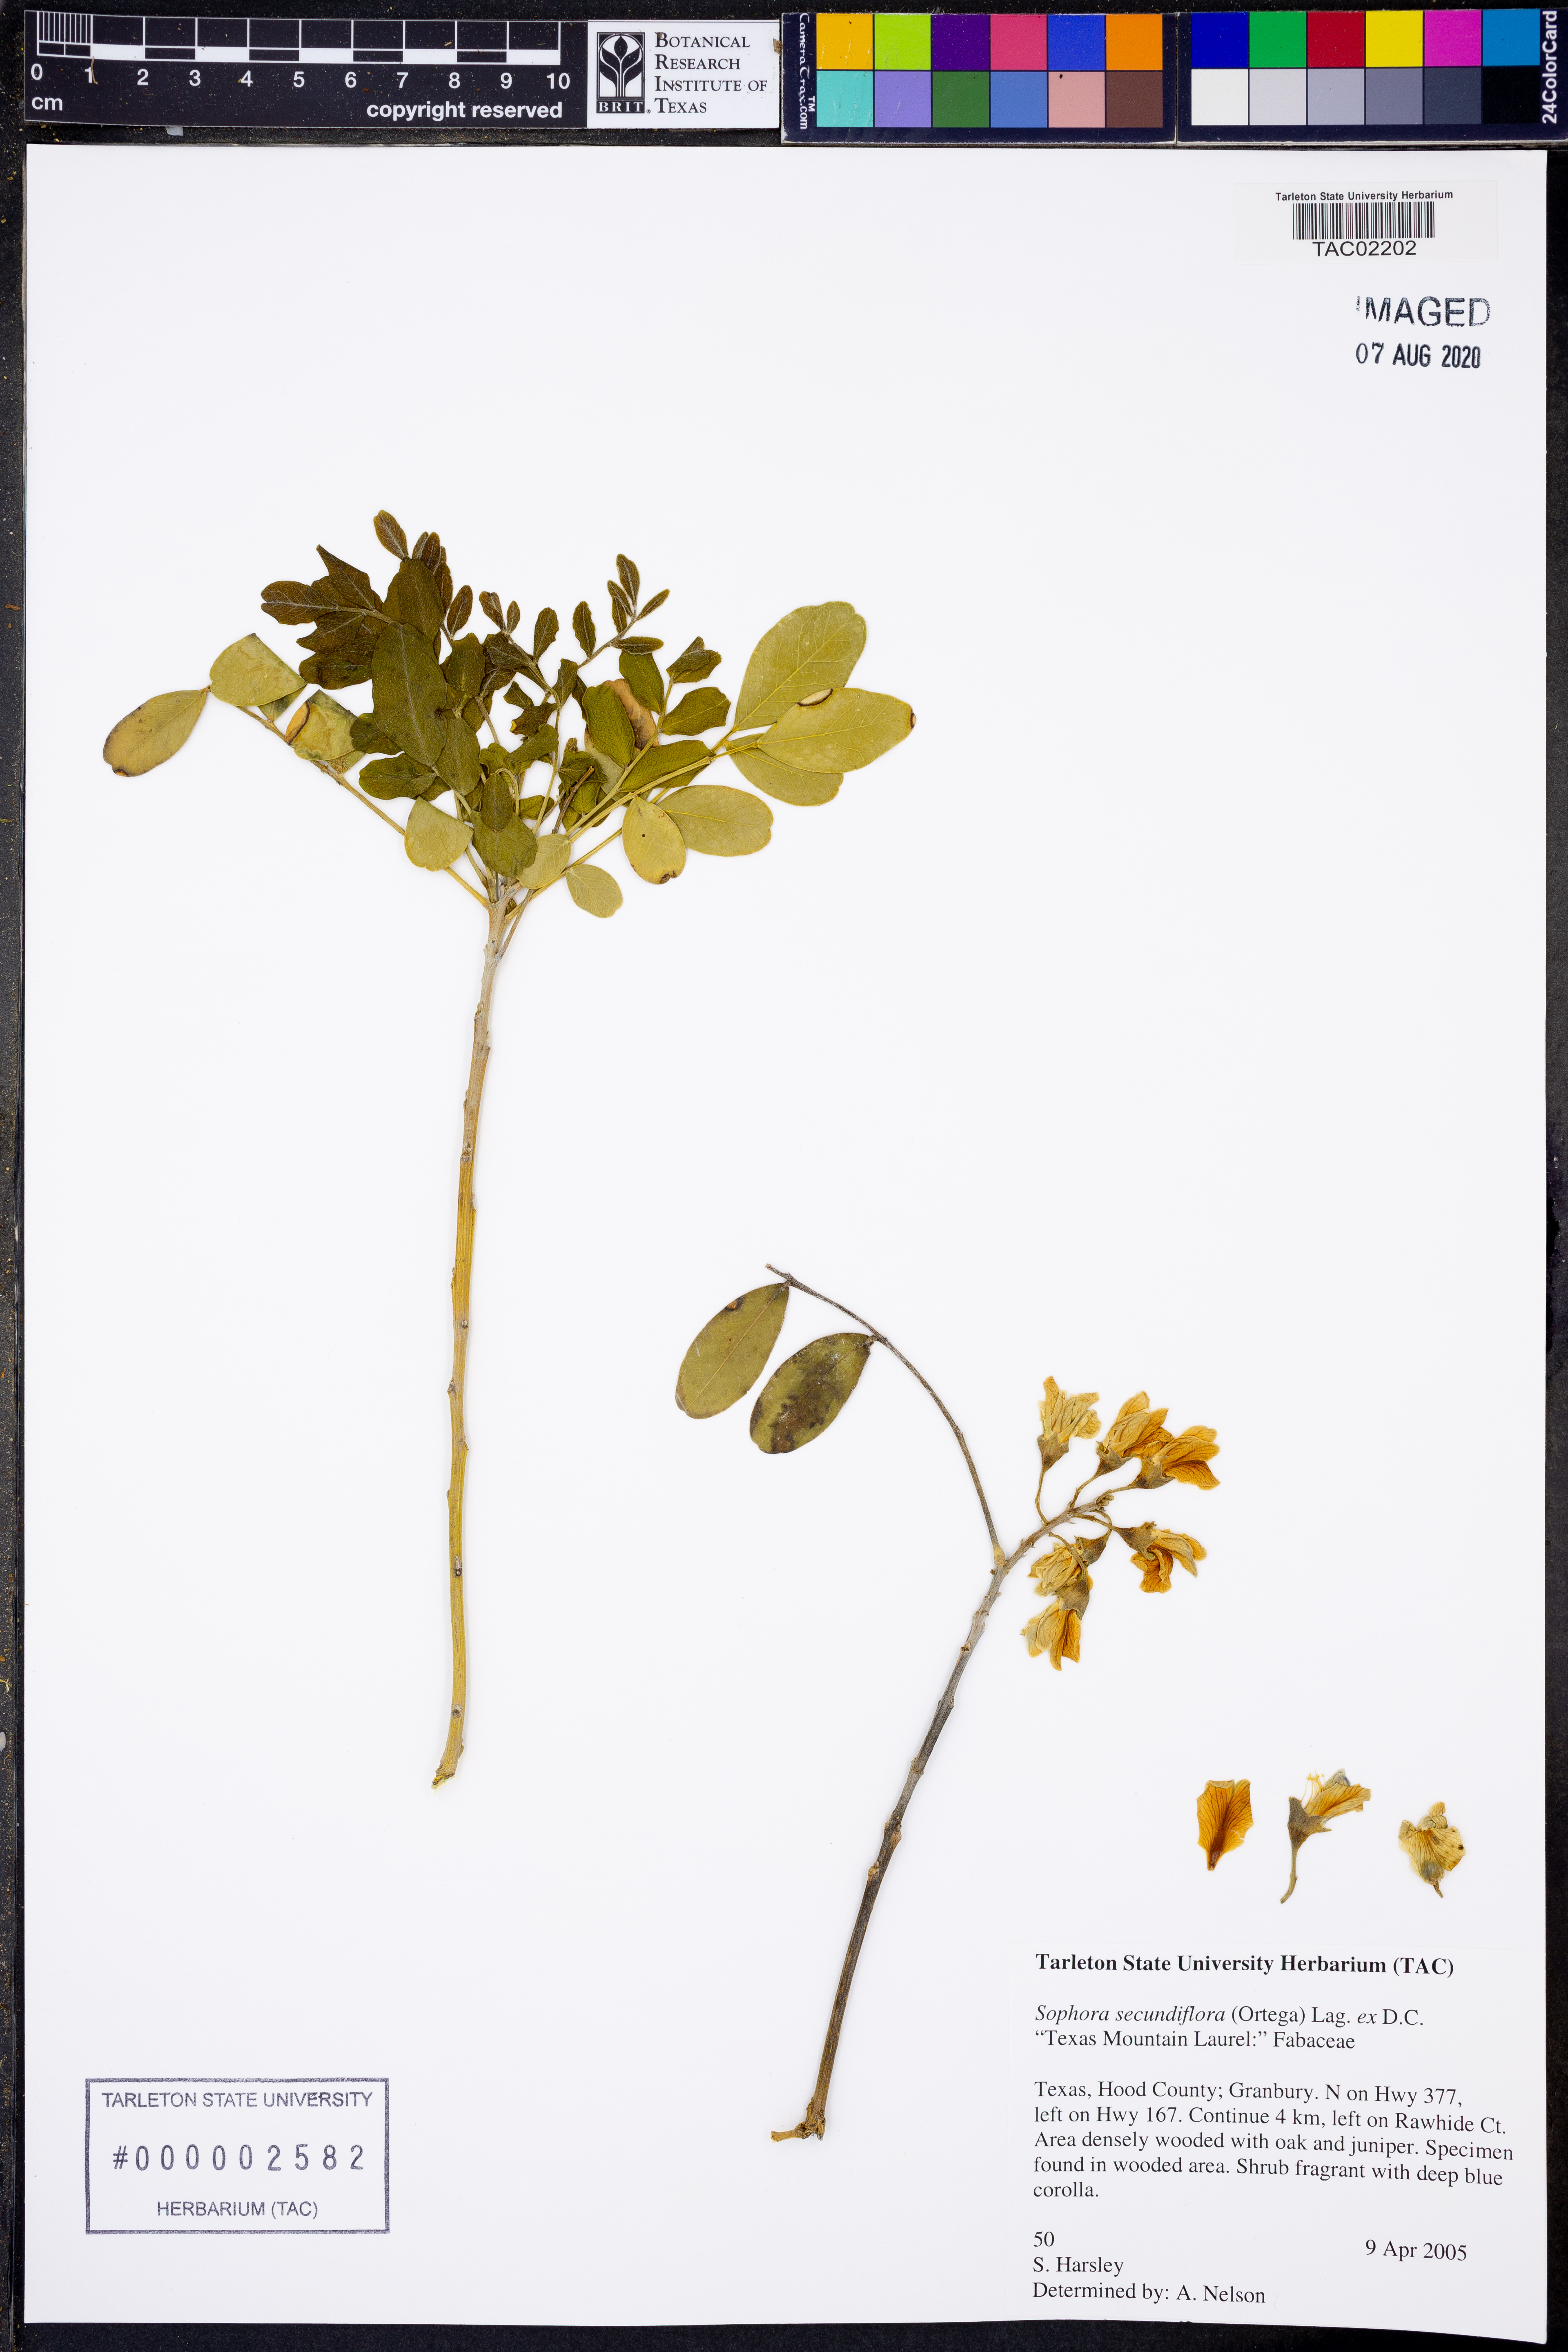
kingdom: Plantae
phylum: Tracheophyta
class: Magnoliopsida
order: Fabales
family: Fabaceae
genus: Dermatophyllum
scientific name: Dermatophyllum secundiflorum
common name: Texas-mountain-laurel
